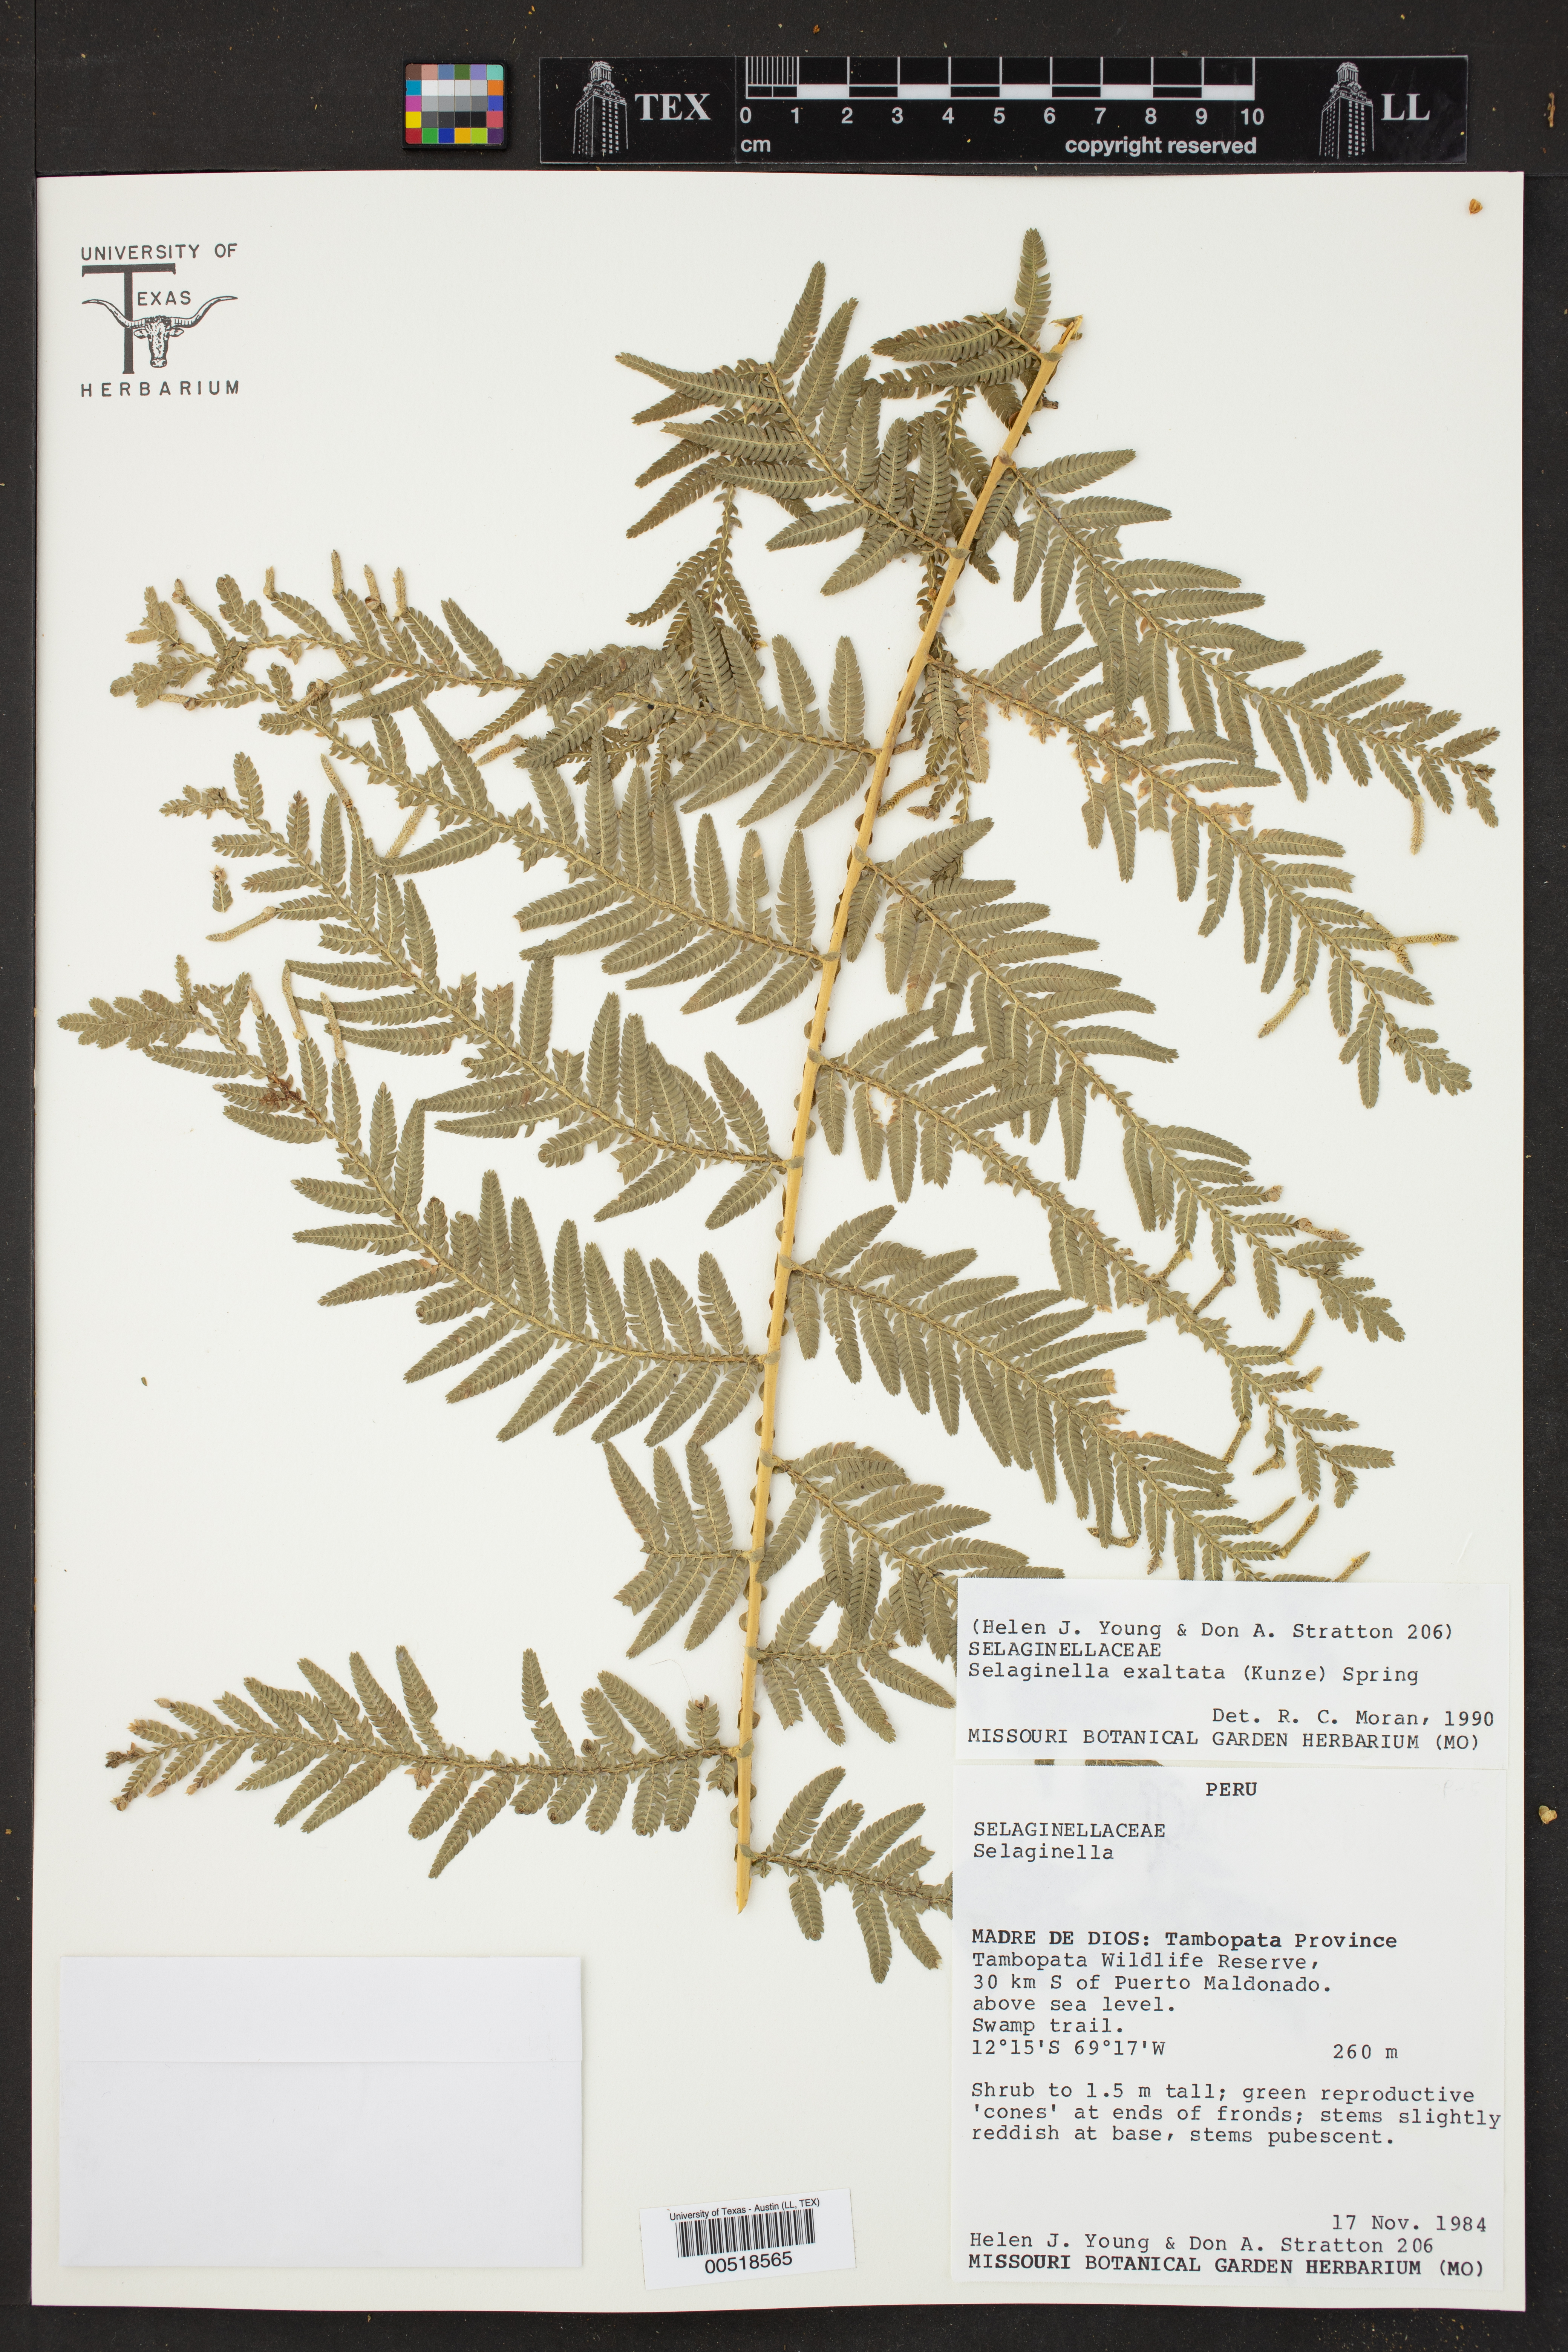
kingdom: Plantae
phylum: Tracheophyta
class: Lycopodiopsida
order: Selaginellales
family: Selaginellaceae
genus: Selaginella
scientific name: Selaginella exaltata
